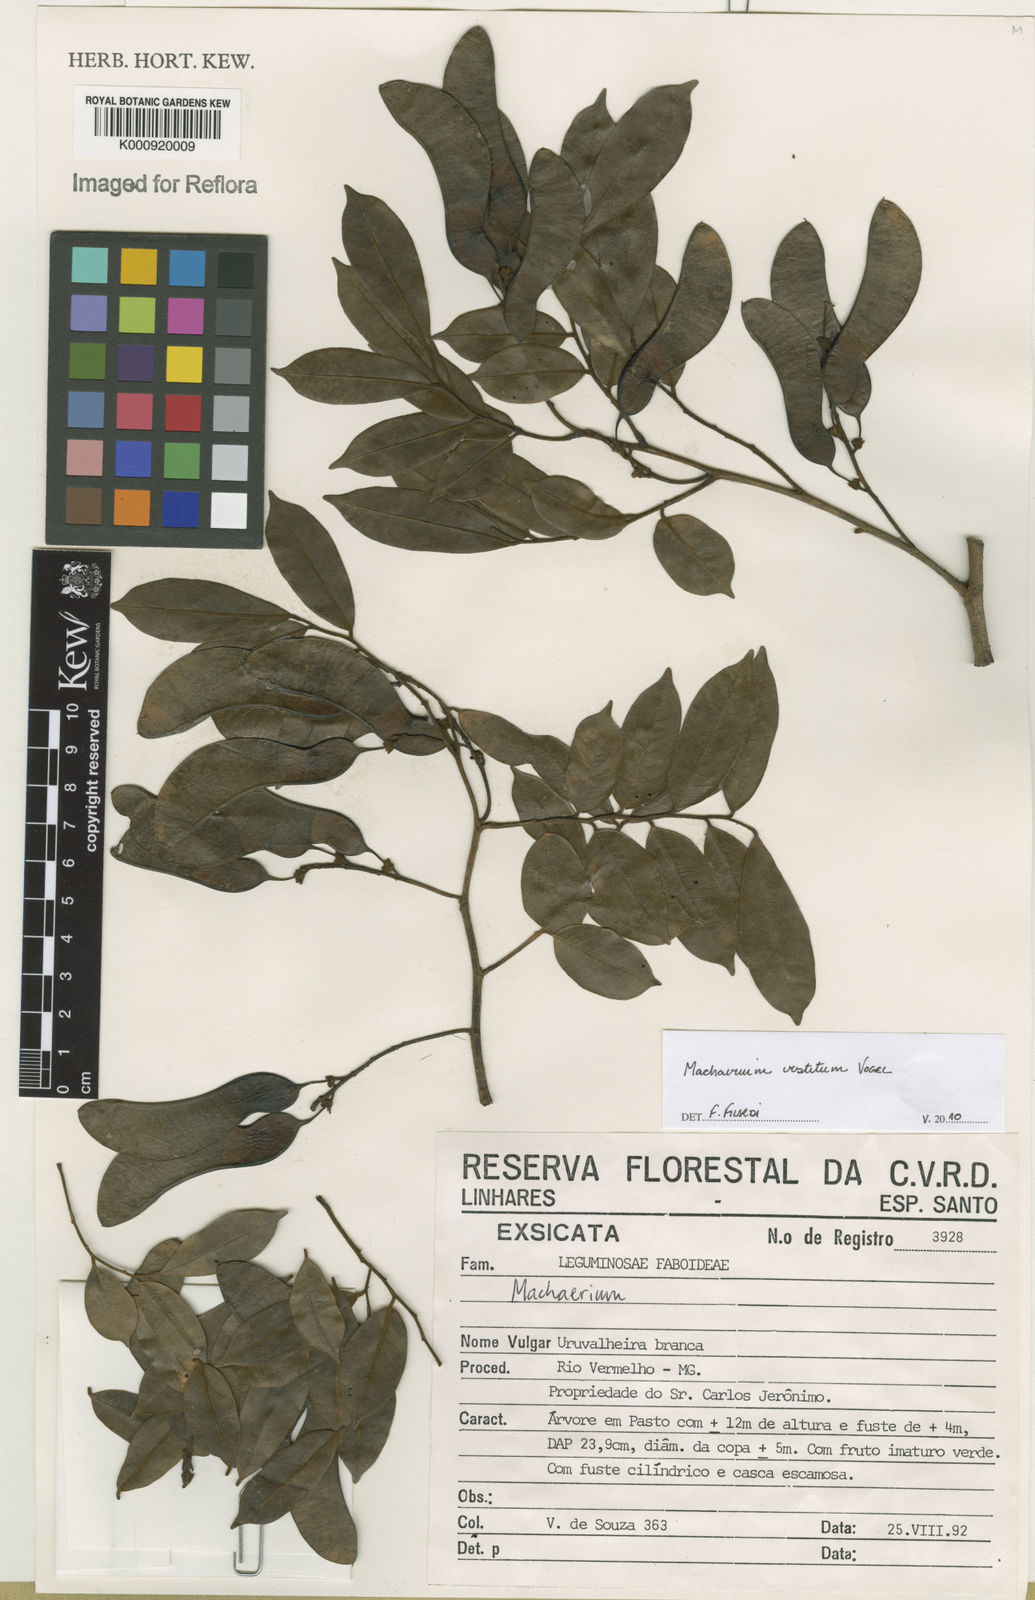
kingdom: Plantae
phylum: Tracheophyta
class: Magnoliopsida
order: Fabales
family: Fabaceae
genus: Machaerium
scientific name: Machaerium brasiliense
